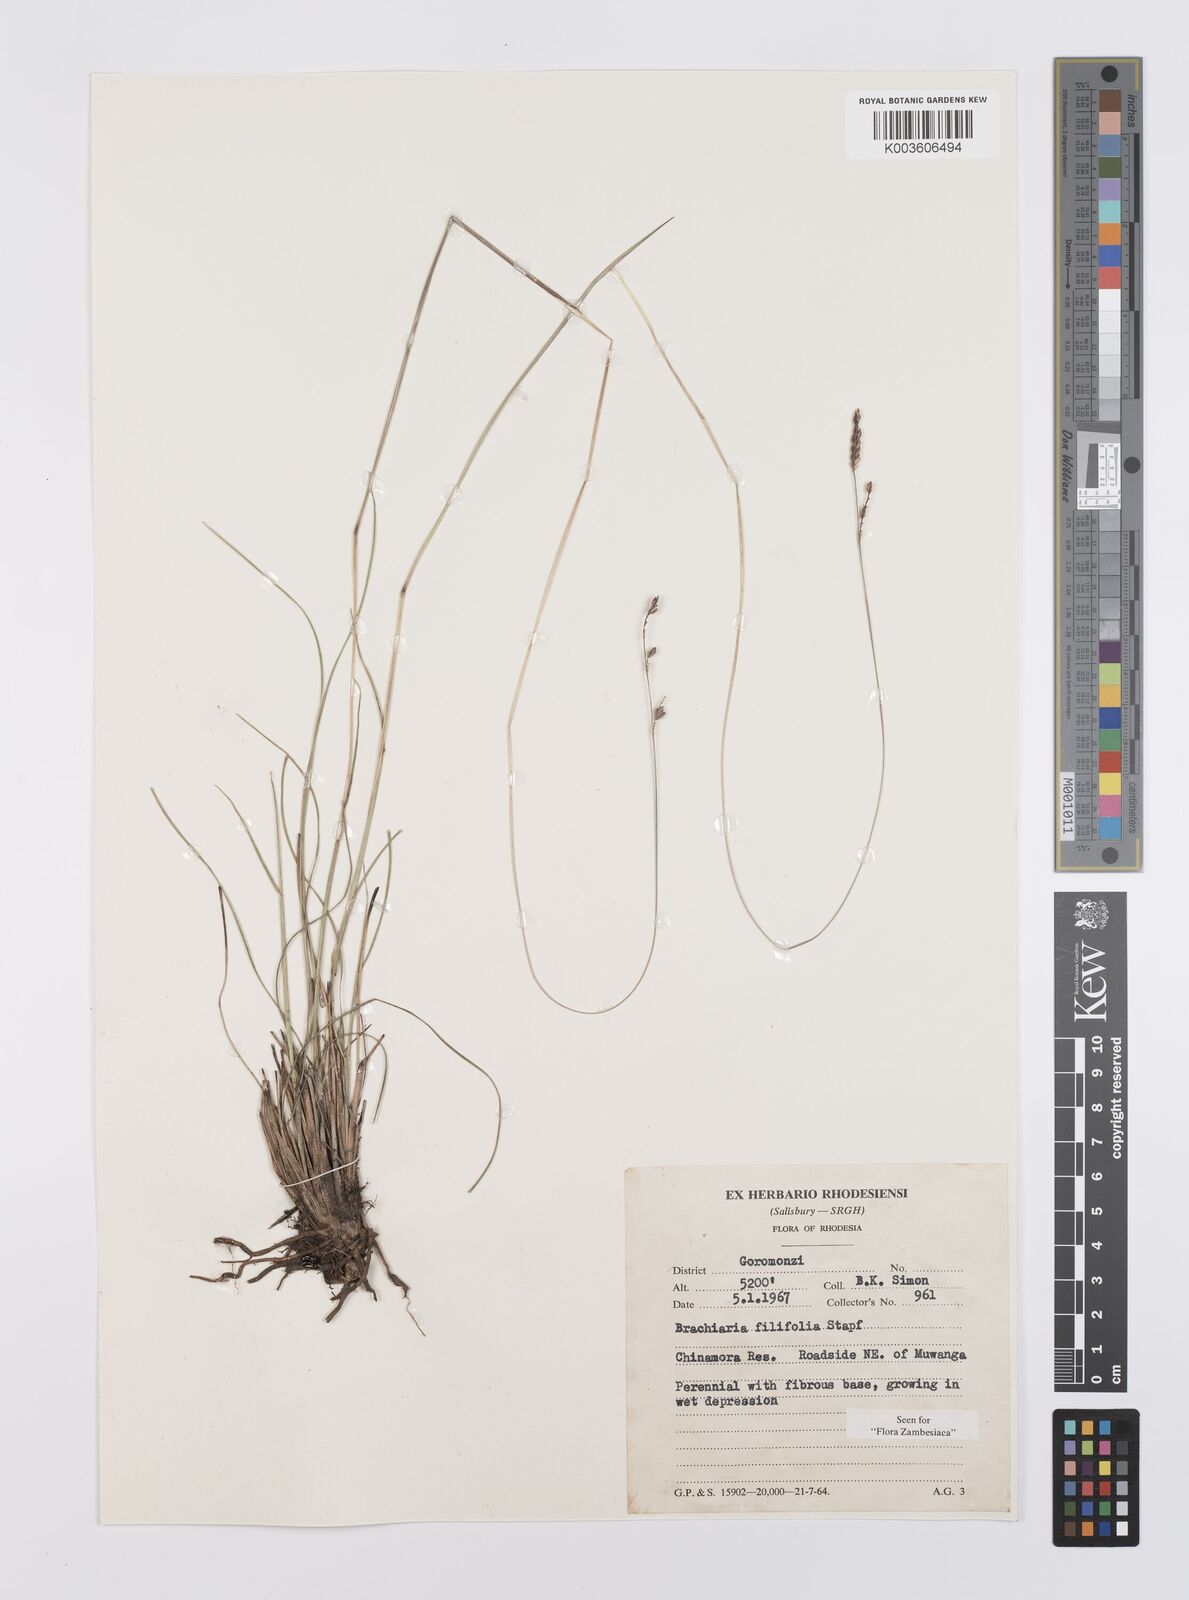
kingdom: Plantae
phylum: Tracheophyta
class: Liliopsida
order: Poales
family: Poaceae
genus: Urochloa
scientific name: Urochloa subulifolia
